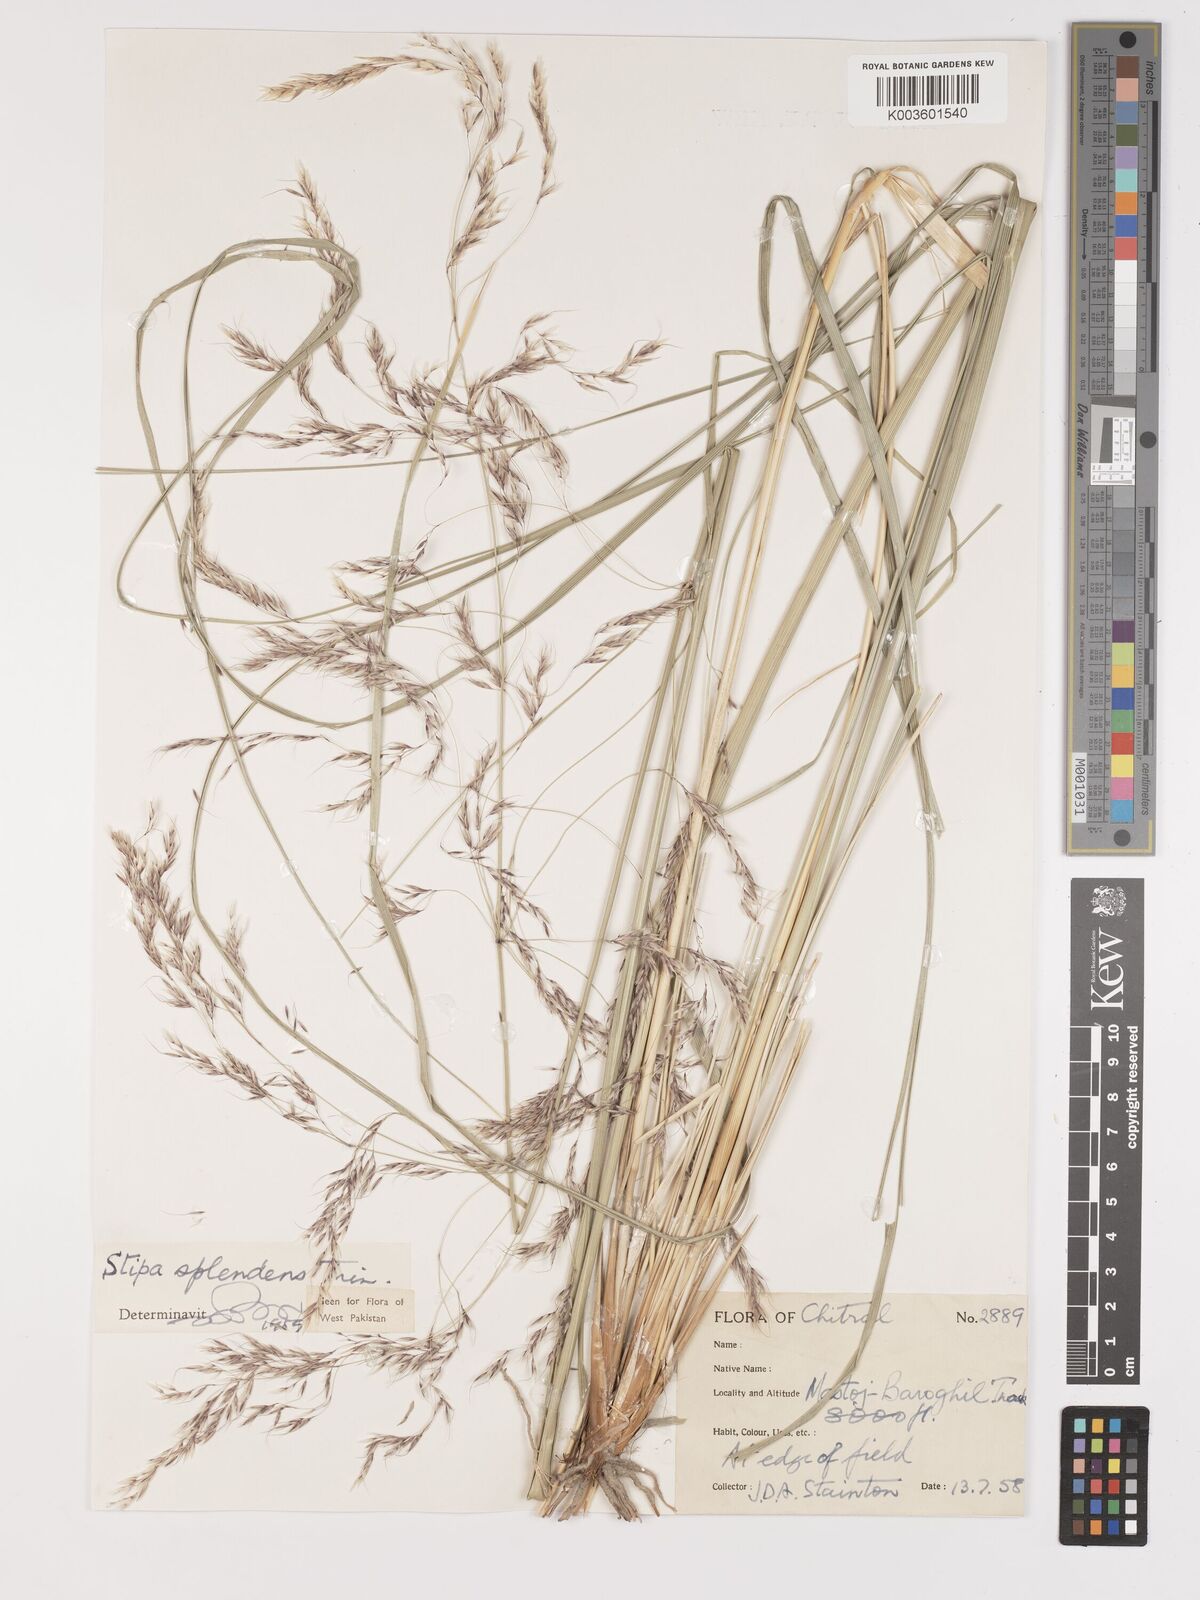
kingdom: Plantae
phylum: Tracheophyta
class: Liliopsida
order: Poales
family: Poaceae
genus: Neotrinia
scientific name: Neotrinia splendens
